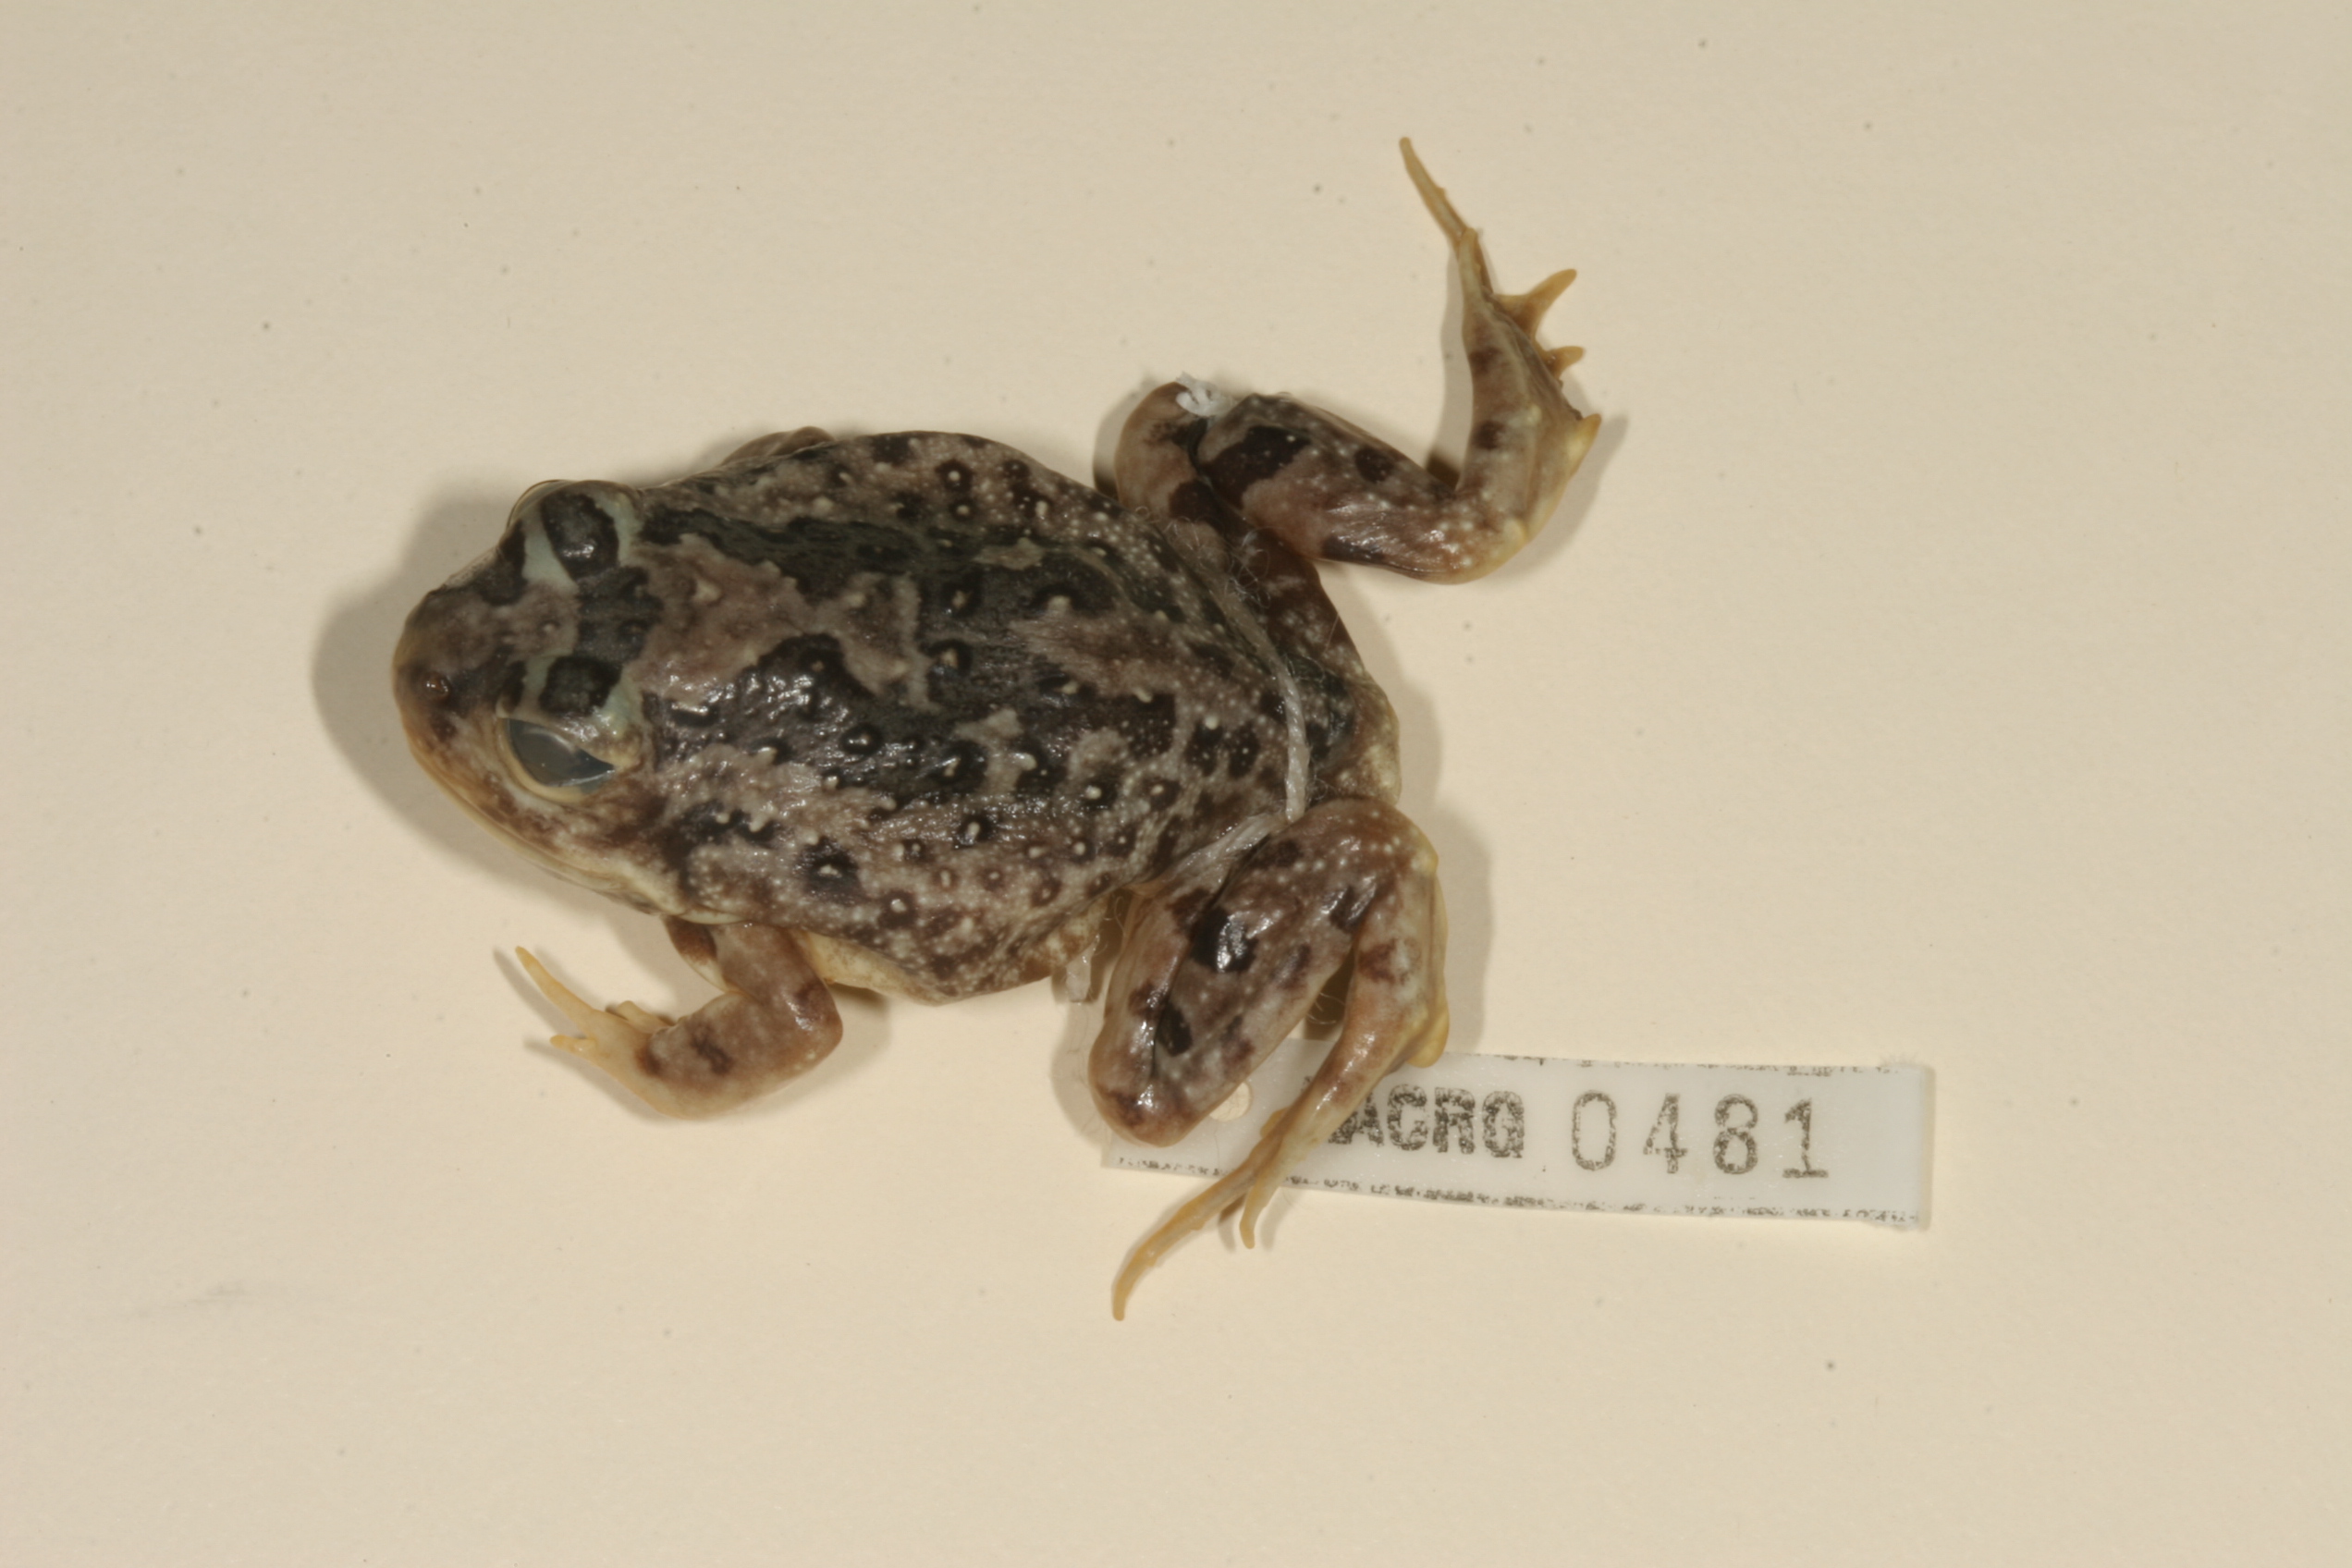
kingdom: Animalia
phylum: Chordata
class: Amphibia
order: Anura
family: Pyxicephalidae
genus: Tomopterna
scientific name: Tomopterna krugerensis
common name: Knocking sand frog
